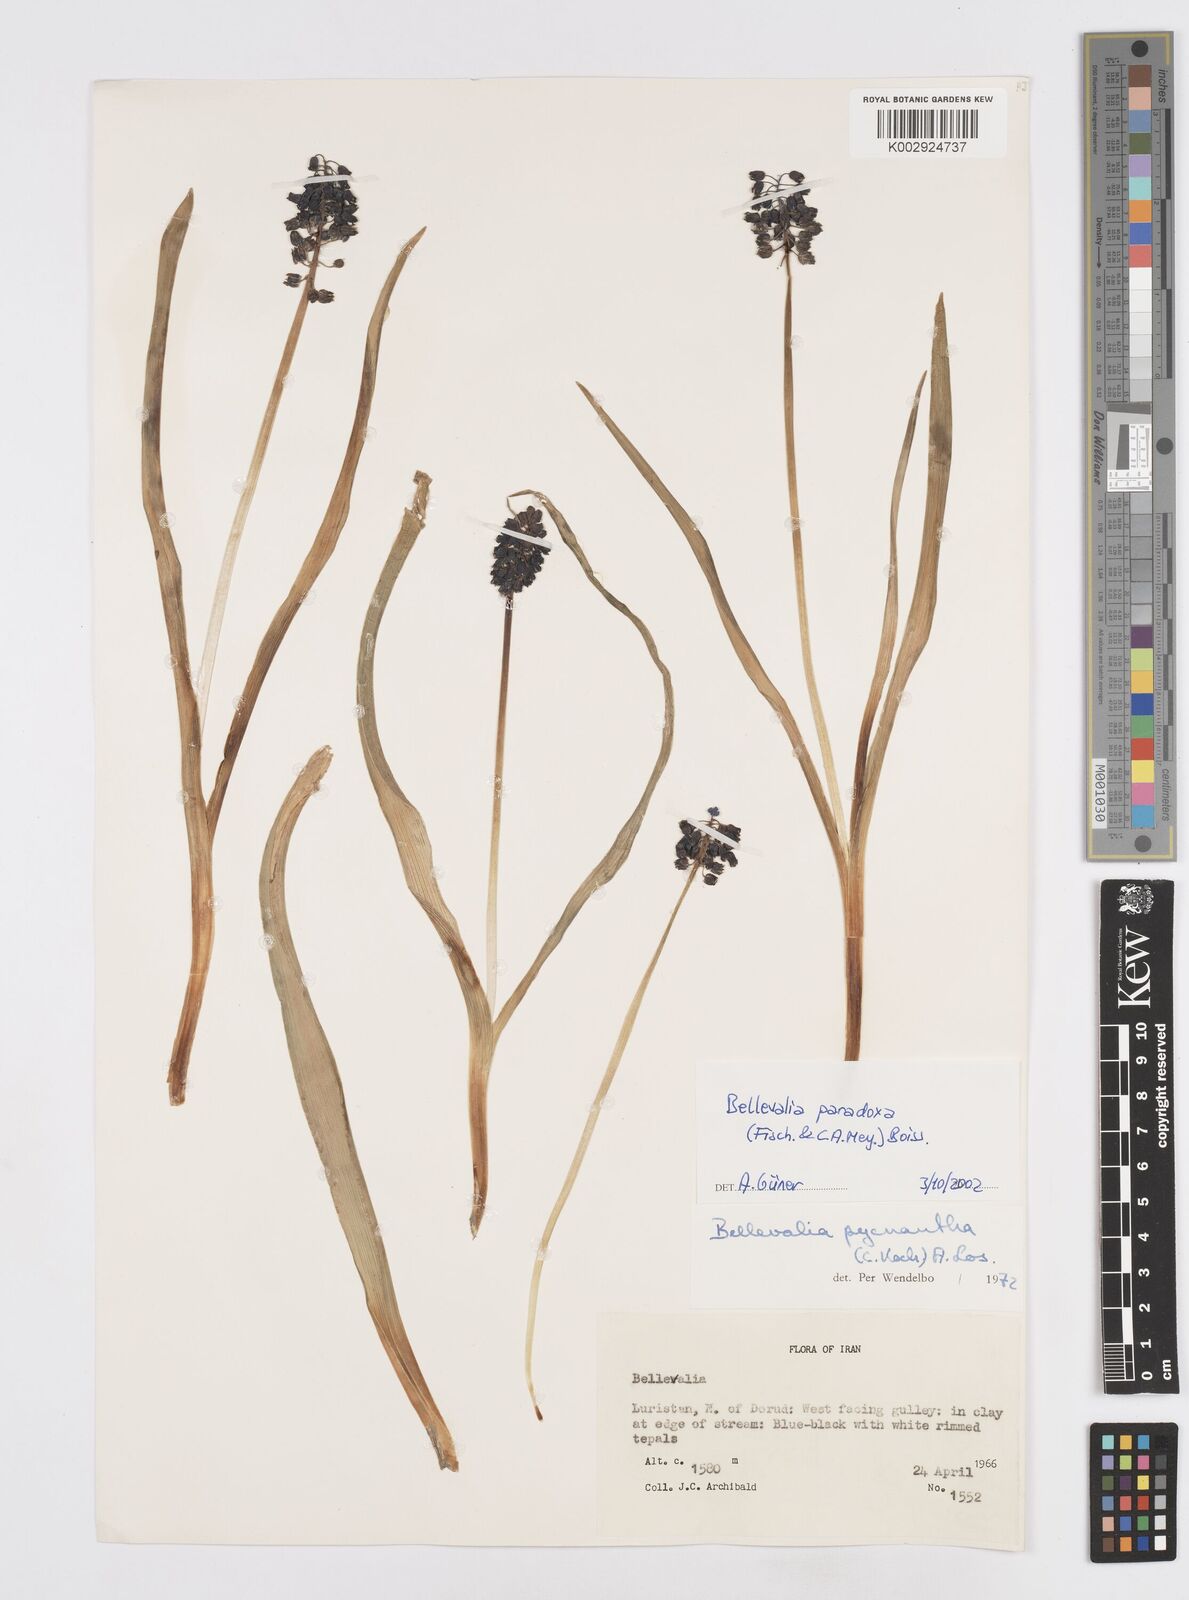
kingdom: Plantae
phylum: Tracheophyta
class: Liliopsida
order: Asparagales
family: Asparagaceae
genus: Bellevalia
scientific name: Bellevalia paradoxa
